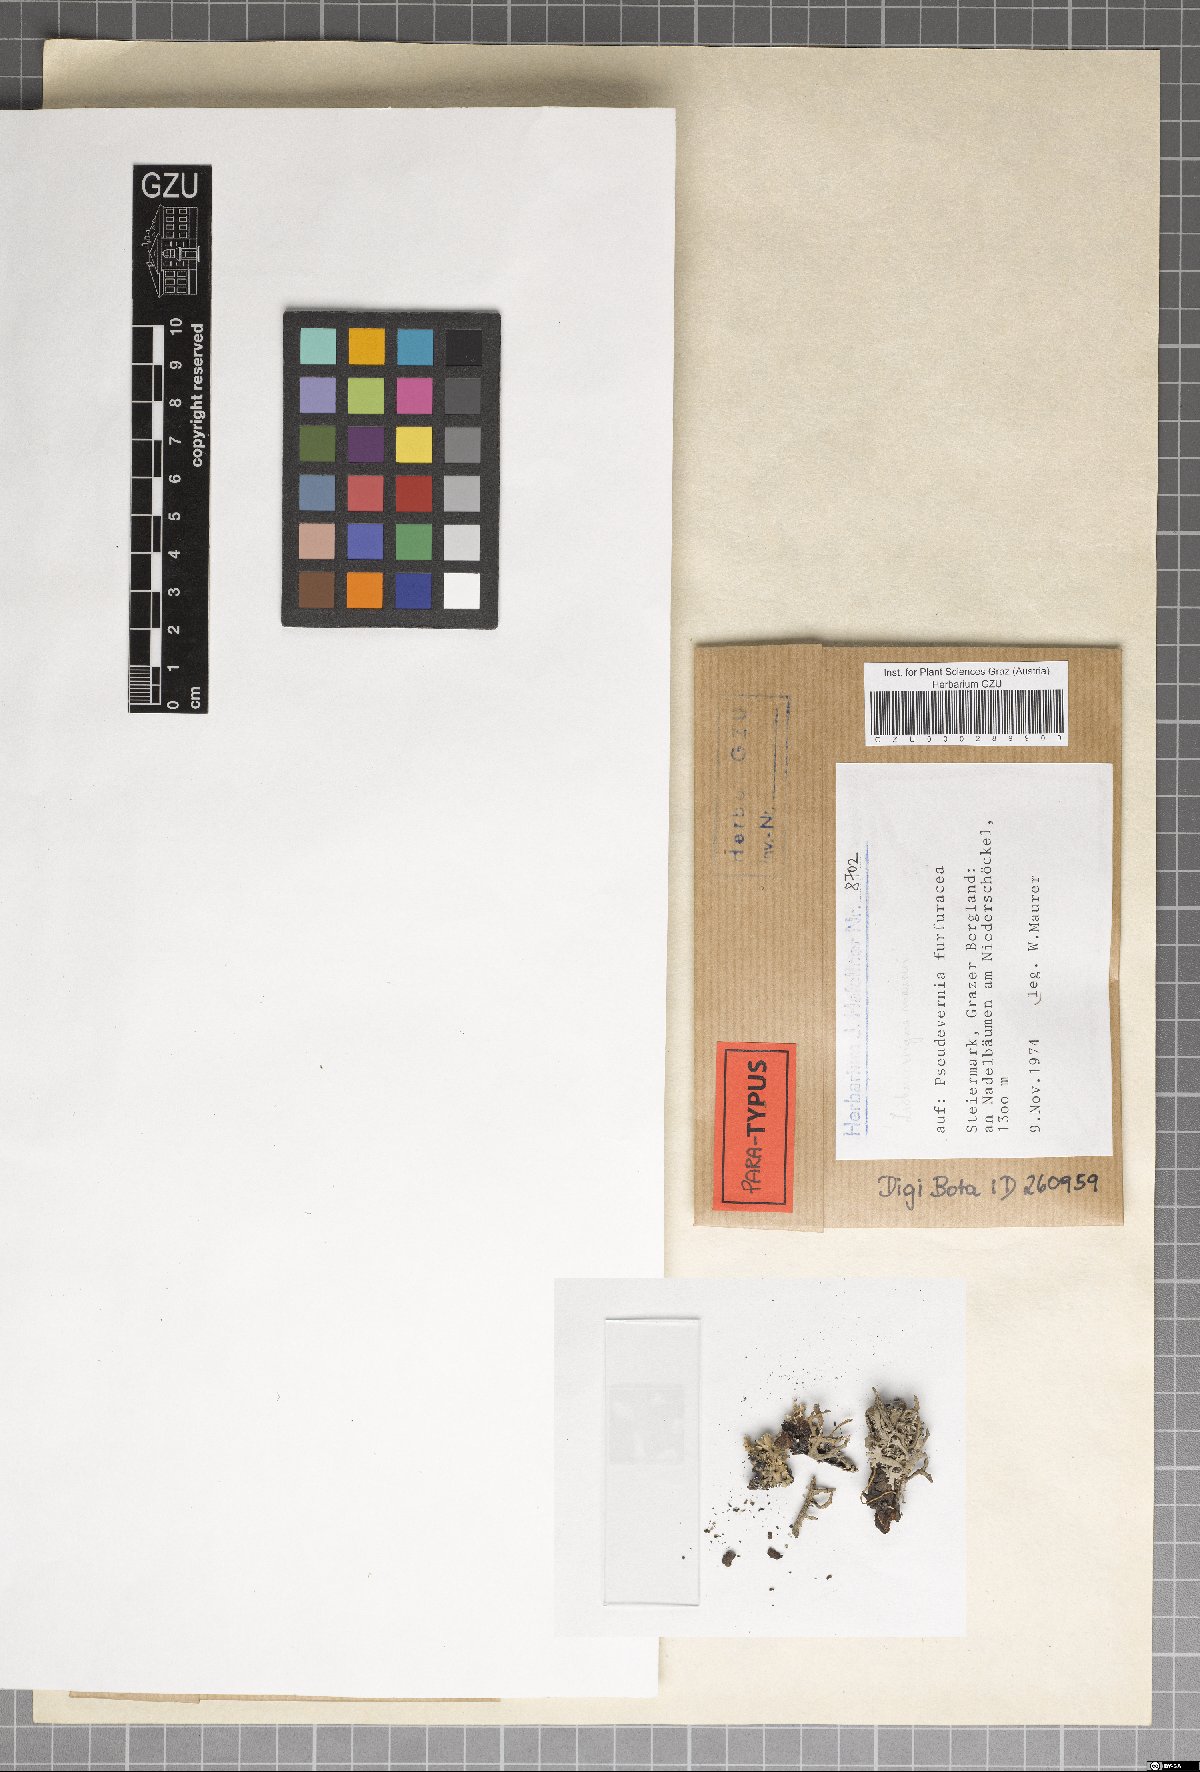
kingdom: Fungi
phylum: Ascomycota
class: Arthoniomycetes
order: Lichenostigmatales
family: Phaeococcomycetaceae
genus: Lichenostigma
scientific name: Lichenostigma maureri
